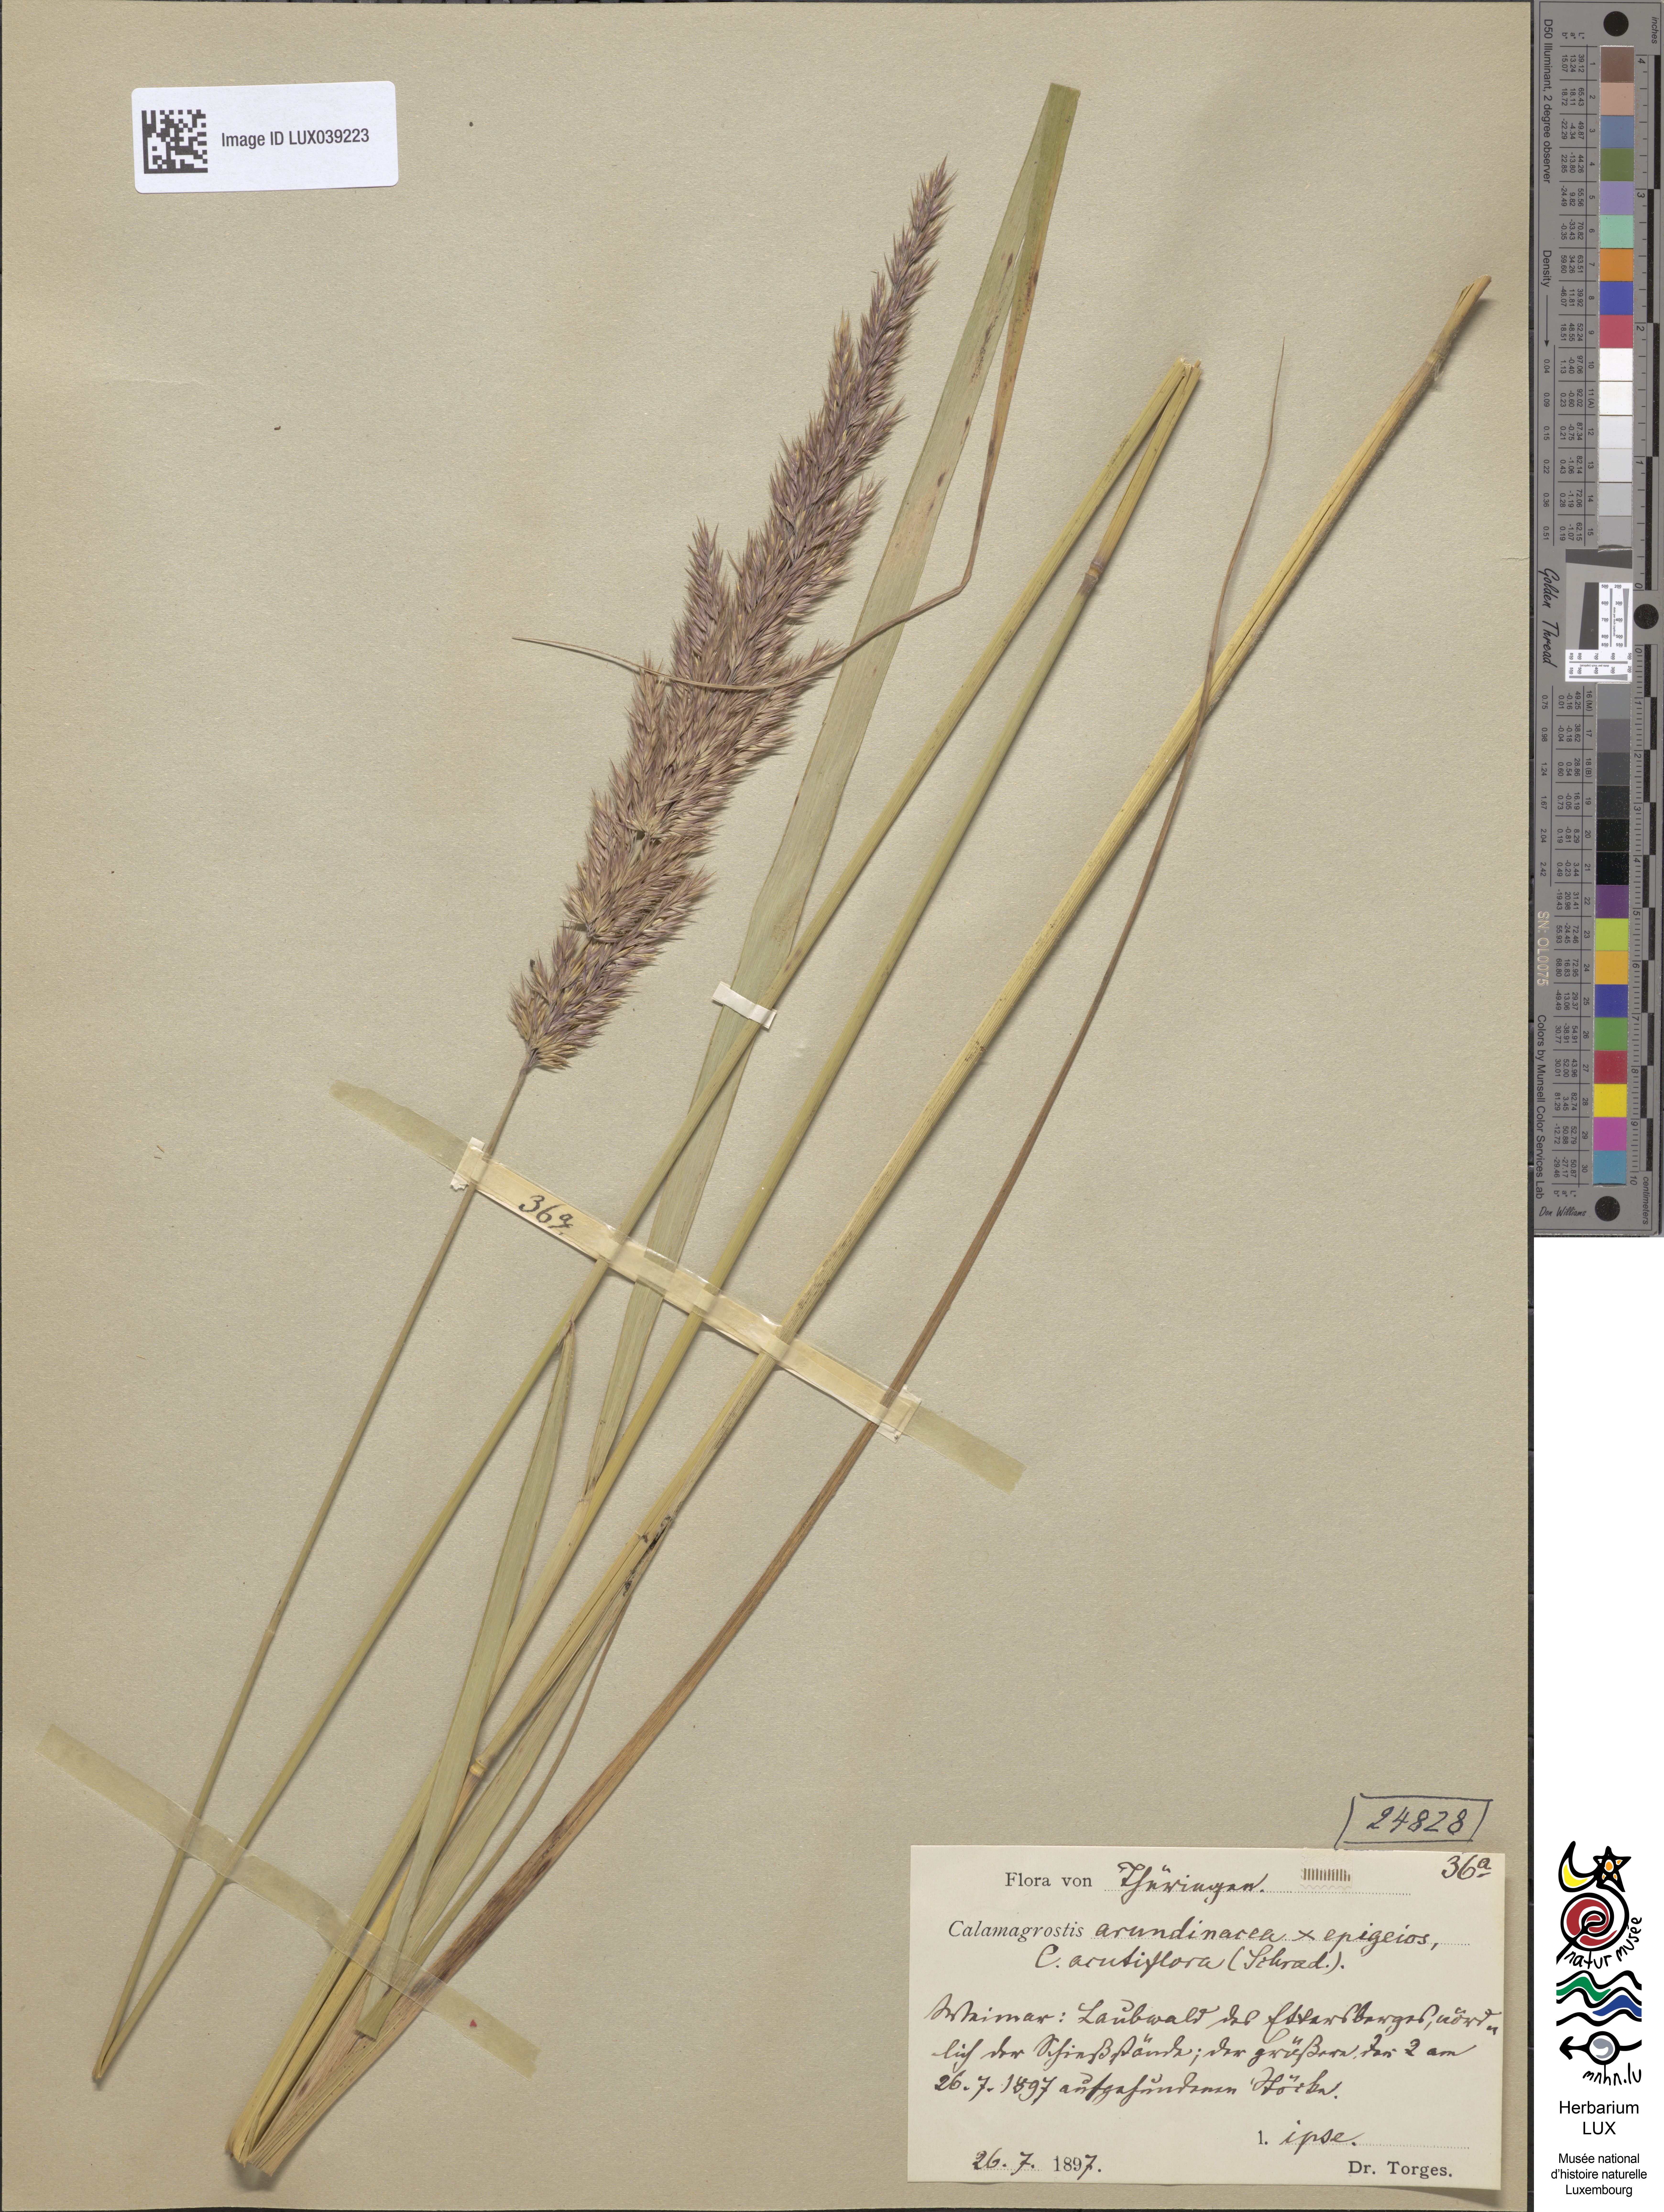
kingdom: Plantae
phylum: Tracheophyta
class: Liliopsida
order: Poales
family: Poaceae
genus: Calamagrostis
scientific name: Calamagrostis acutiflora
